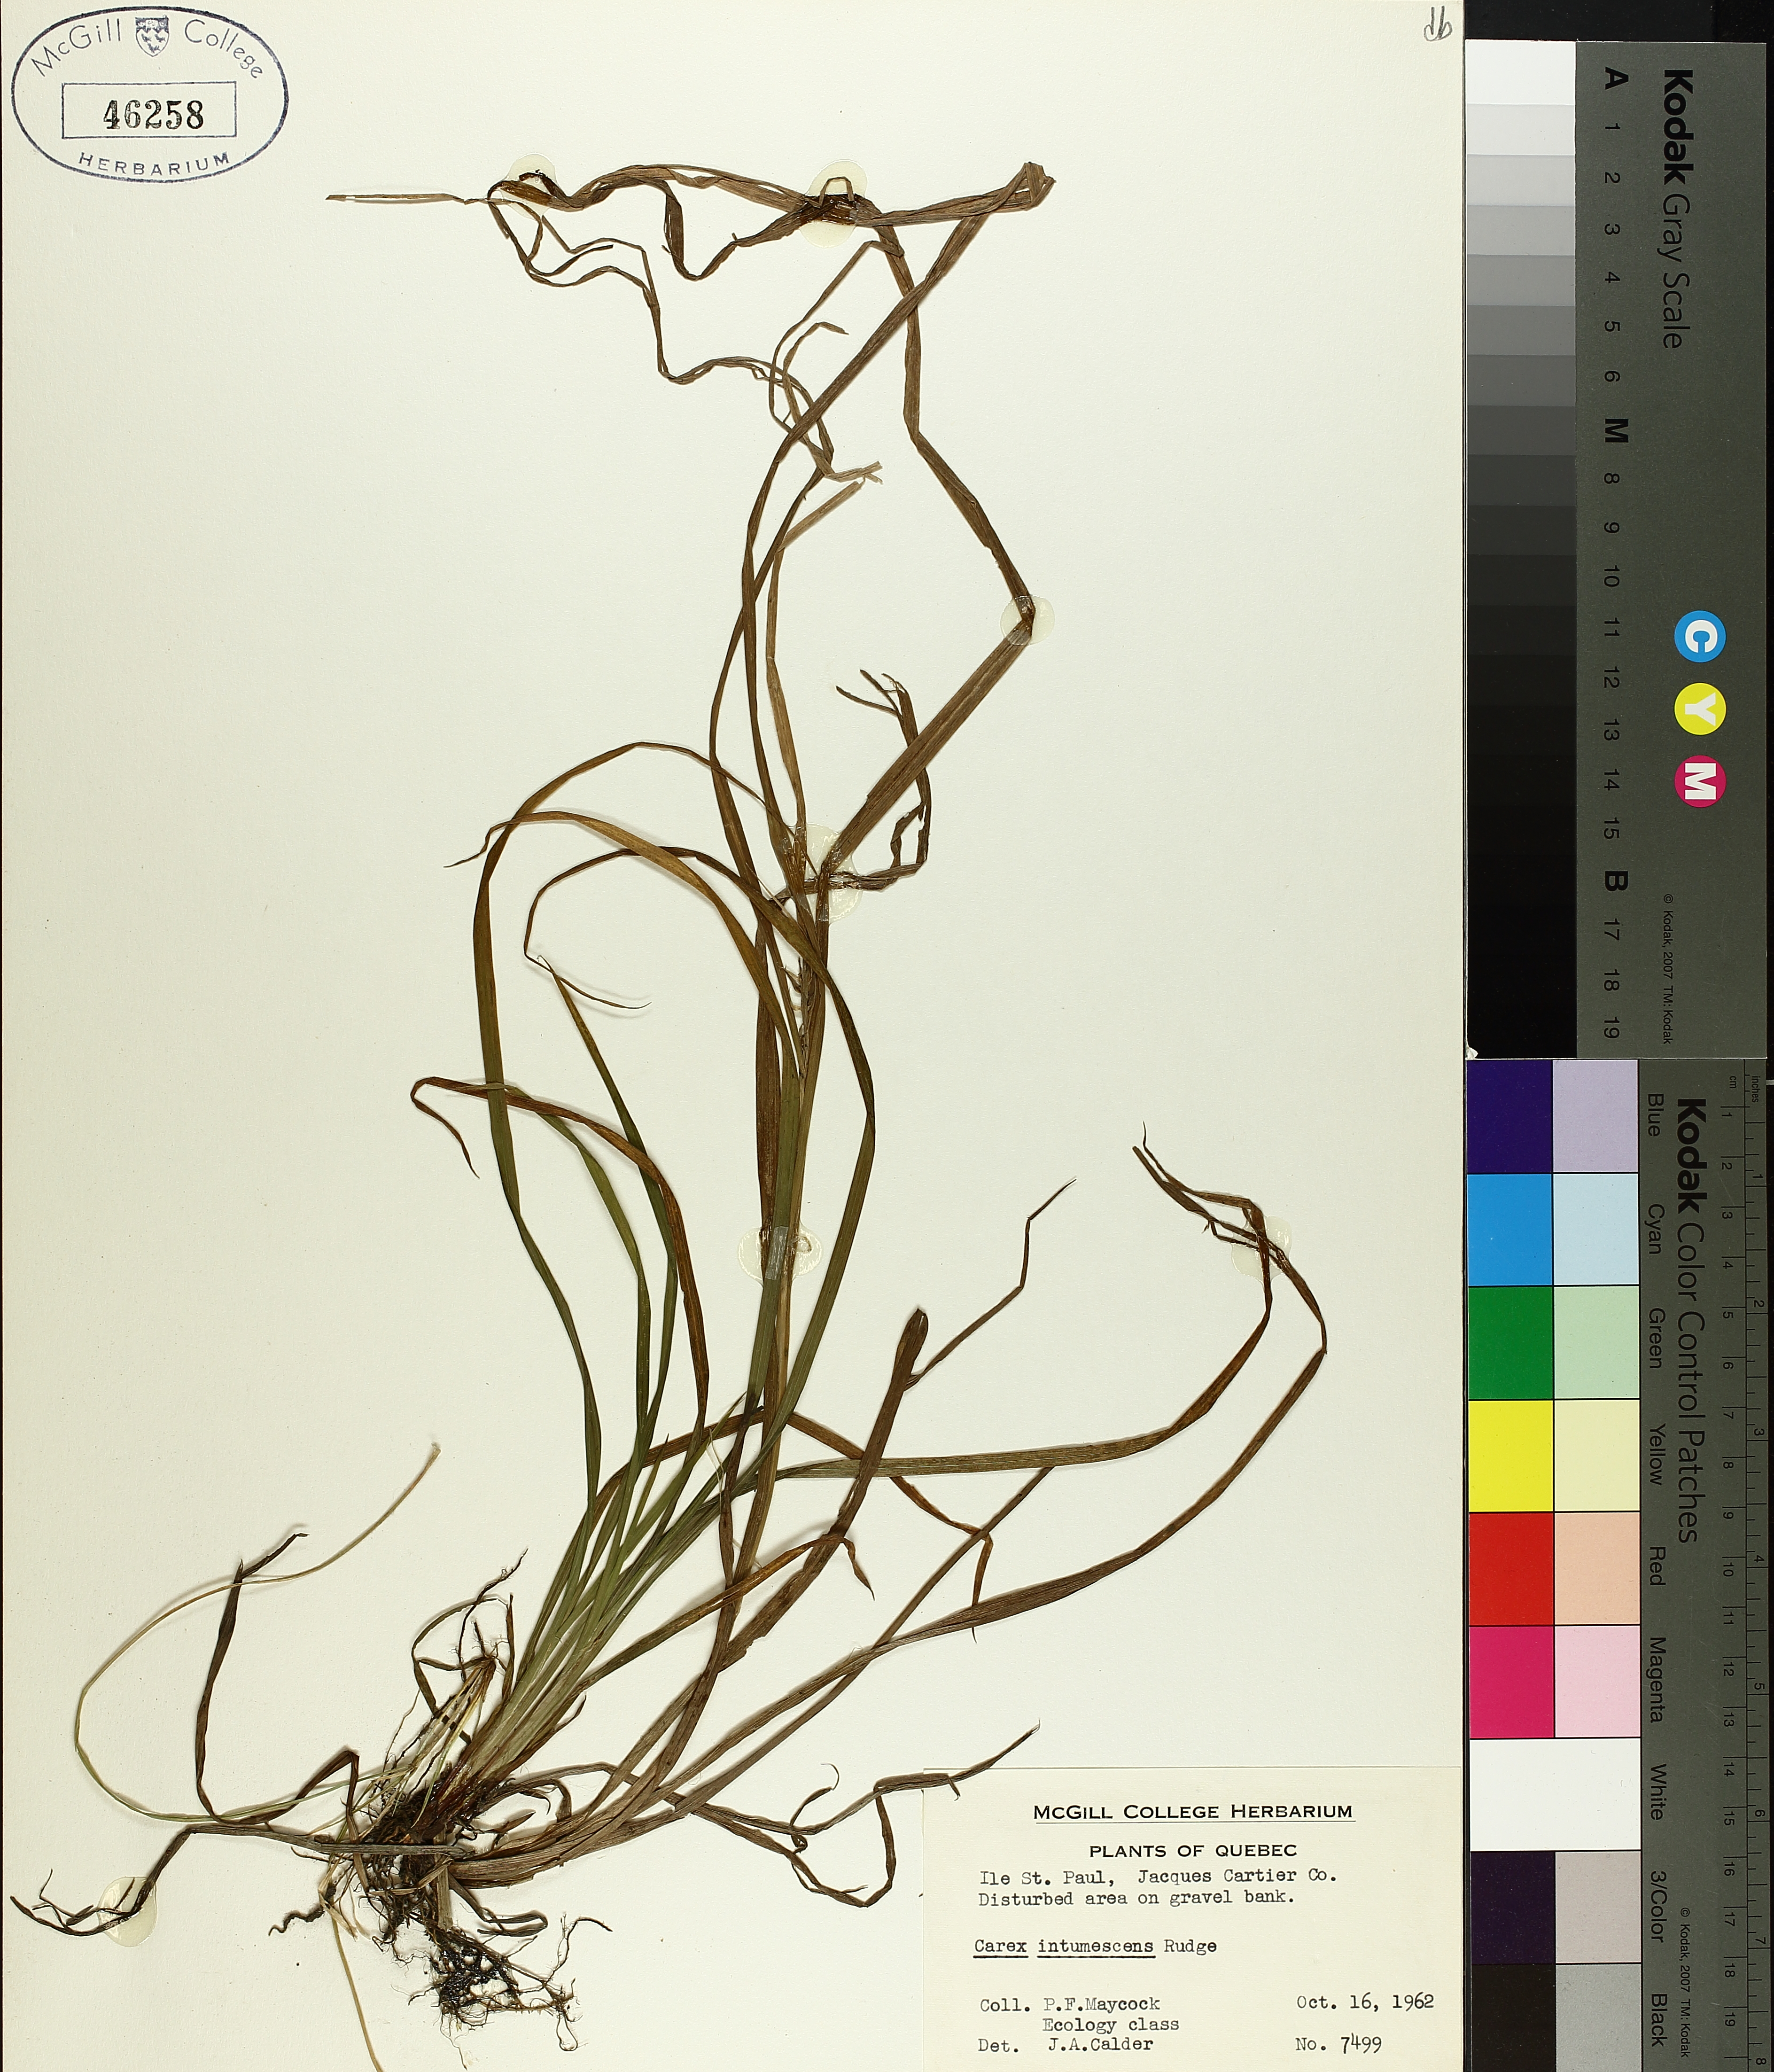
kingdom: Plantae
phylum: Tracheophyta
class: Liliopsida
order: Poales
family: Cyperaceae
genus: Carex
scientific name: Carex intumescens
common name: Greater bladder sedge
